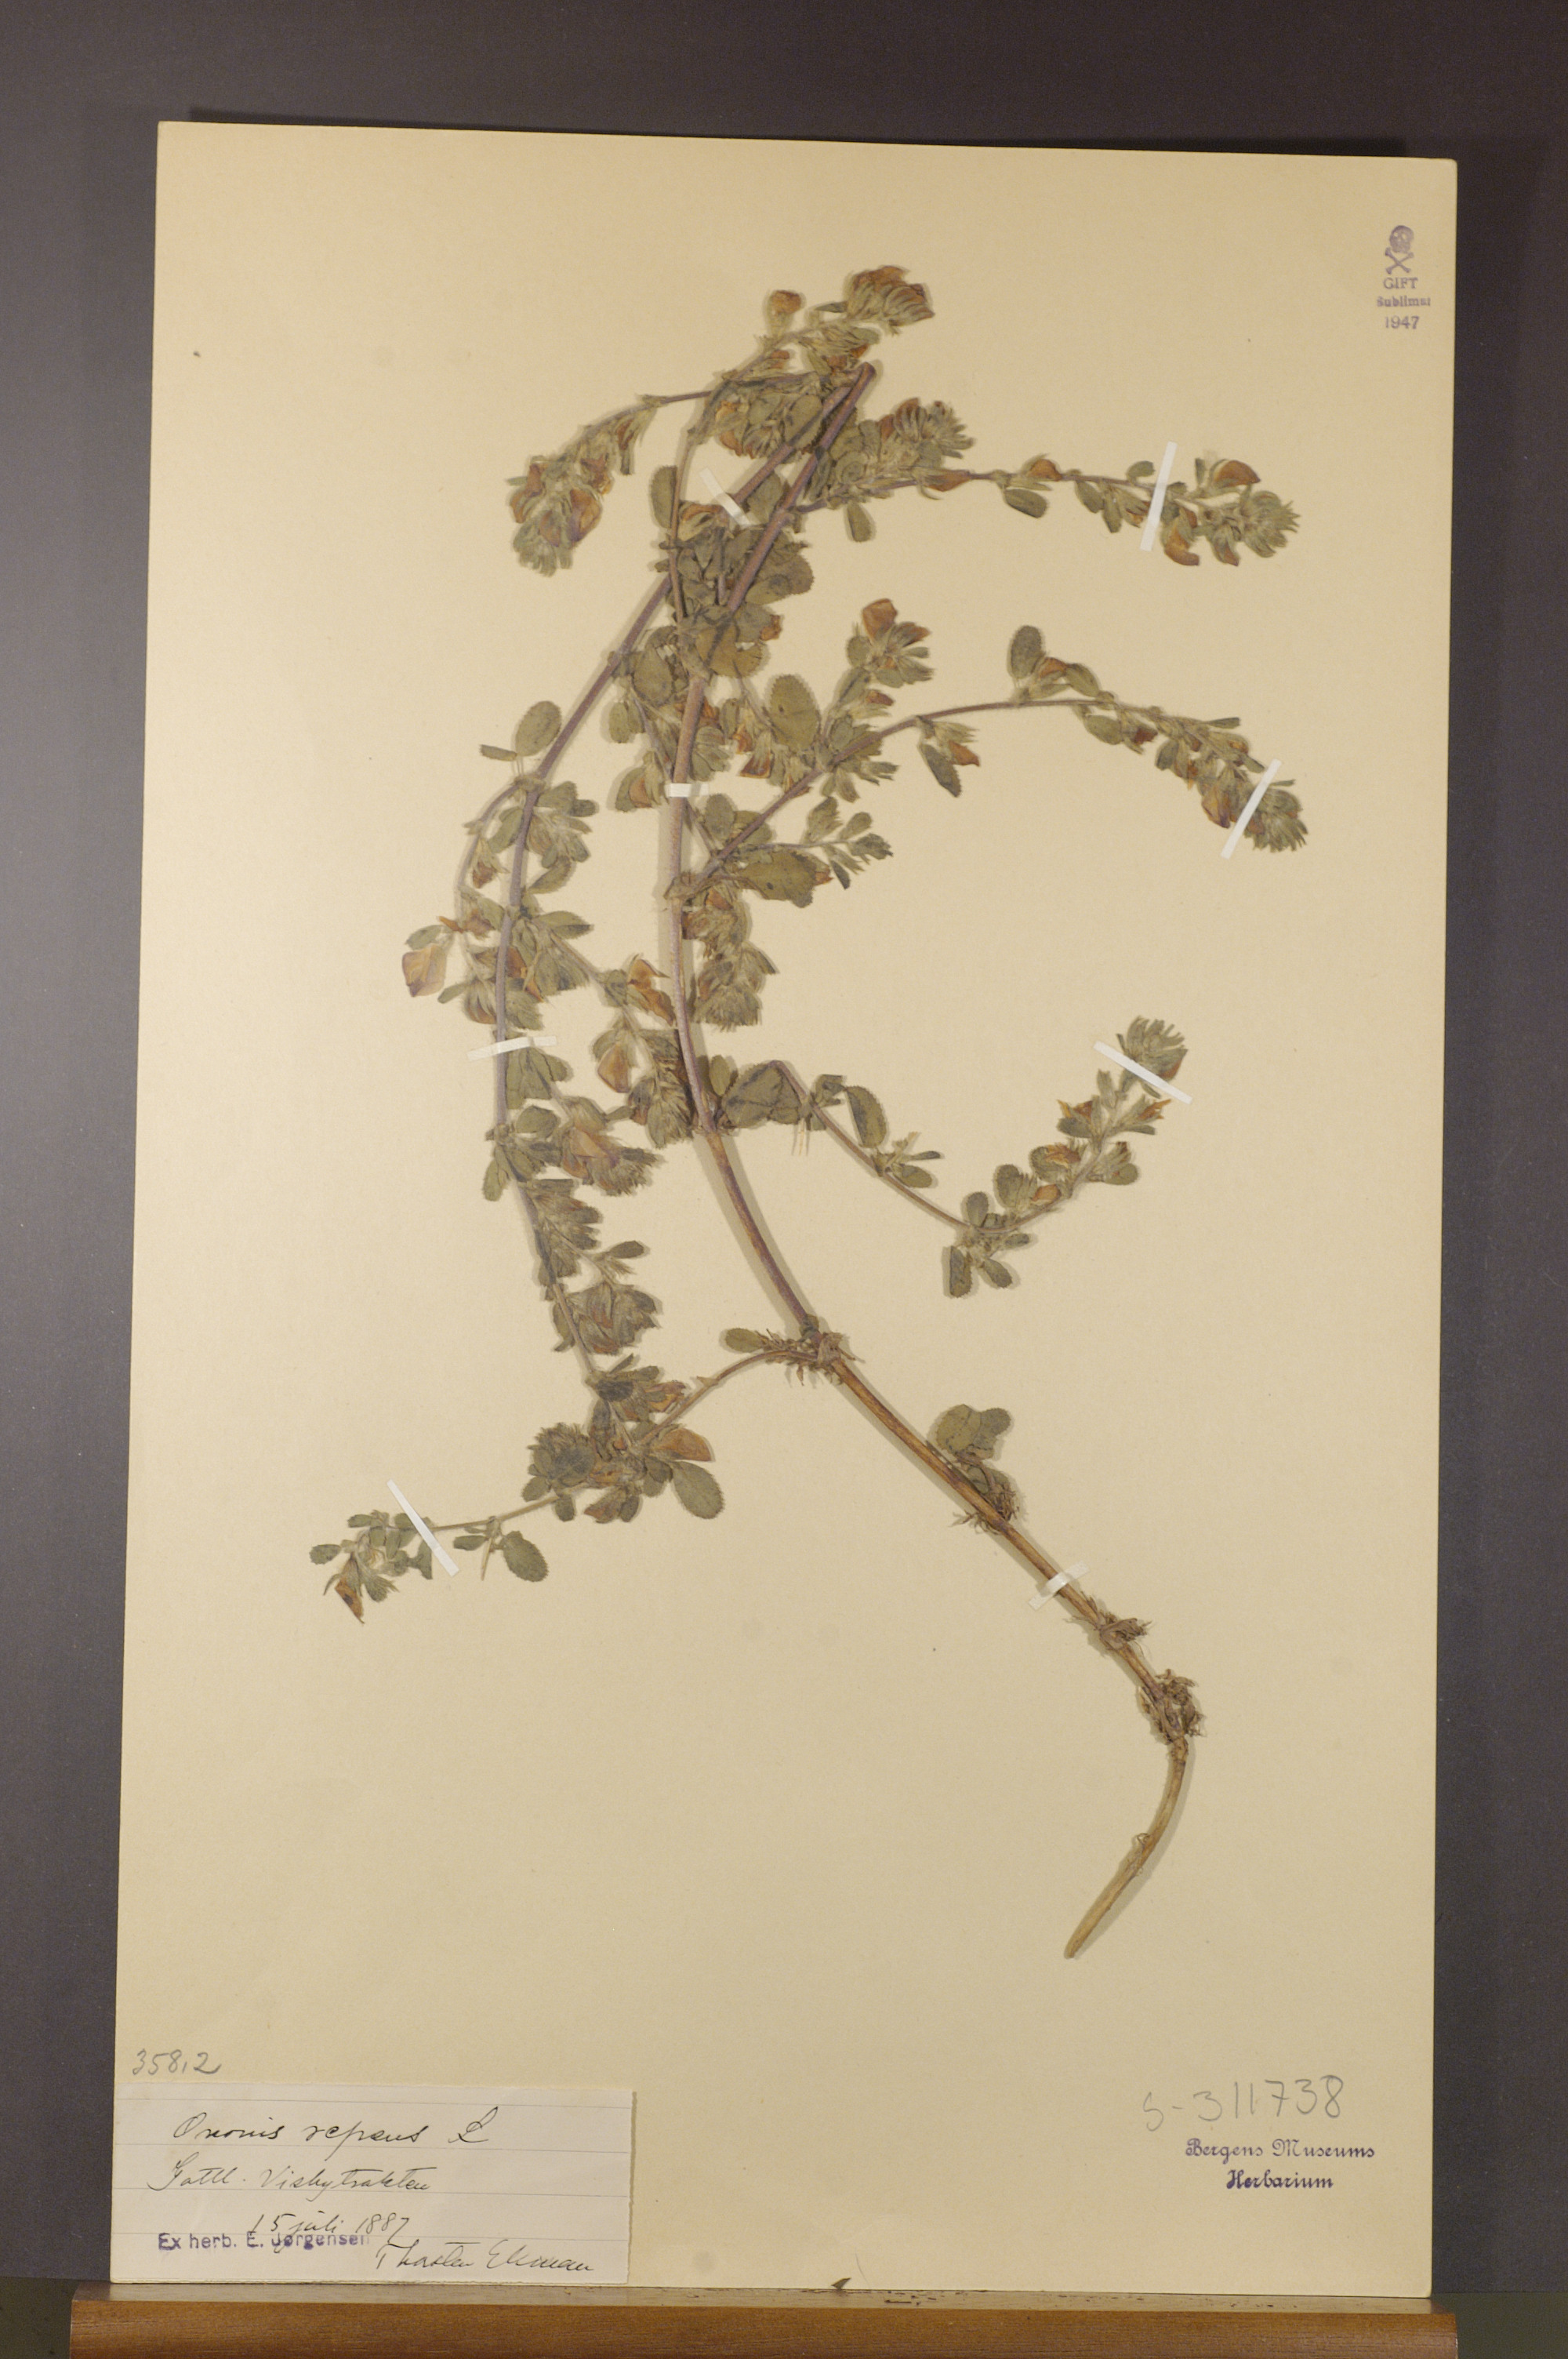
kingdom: Plantae
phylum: Tracheophyta
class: Magnoliopsida
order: Fabales
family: Fabaceae
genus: Ononis
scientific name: Ononis spinosa
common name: Spiny restharrow
